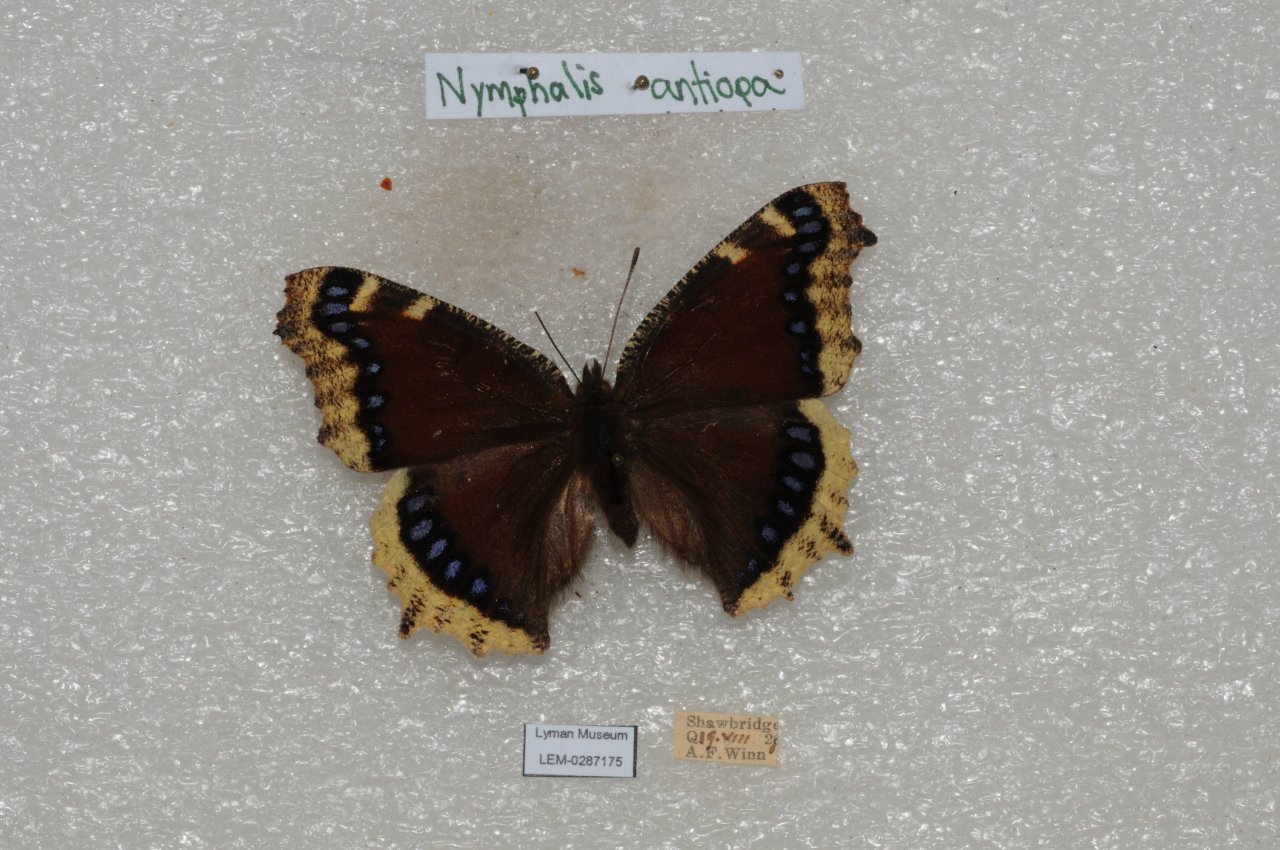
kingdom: Animalia
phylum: Arthropoda
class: Insecta
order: Lepidoptera
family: Nymphalidae
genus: Nymphalis
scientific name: Nymphalis antiopa
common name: Mourning Cloak
